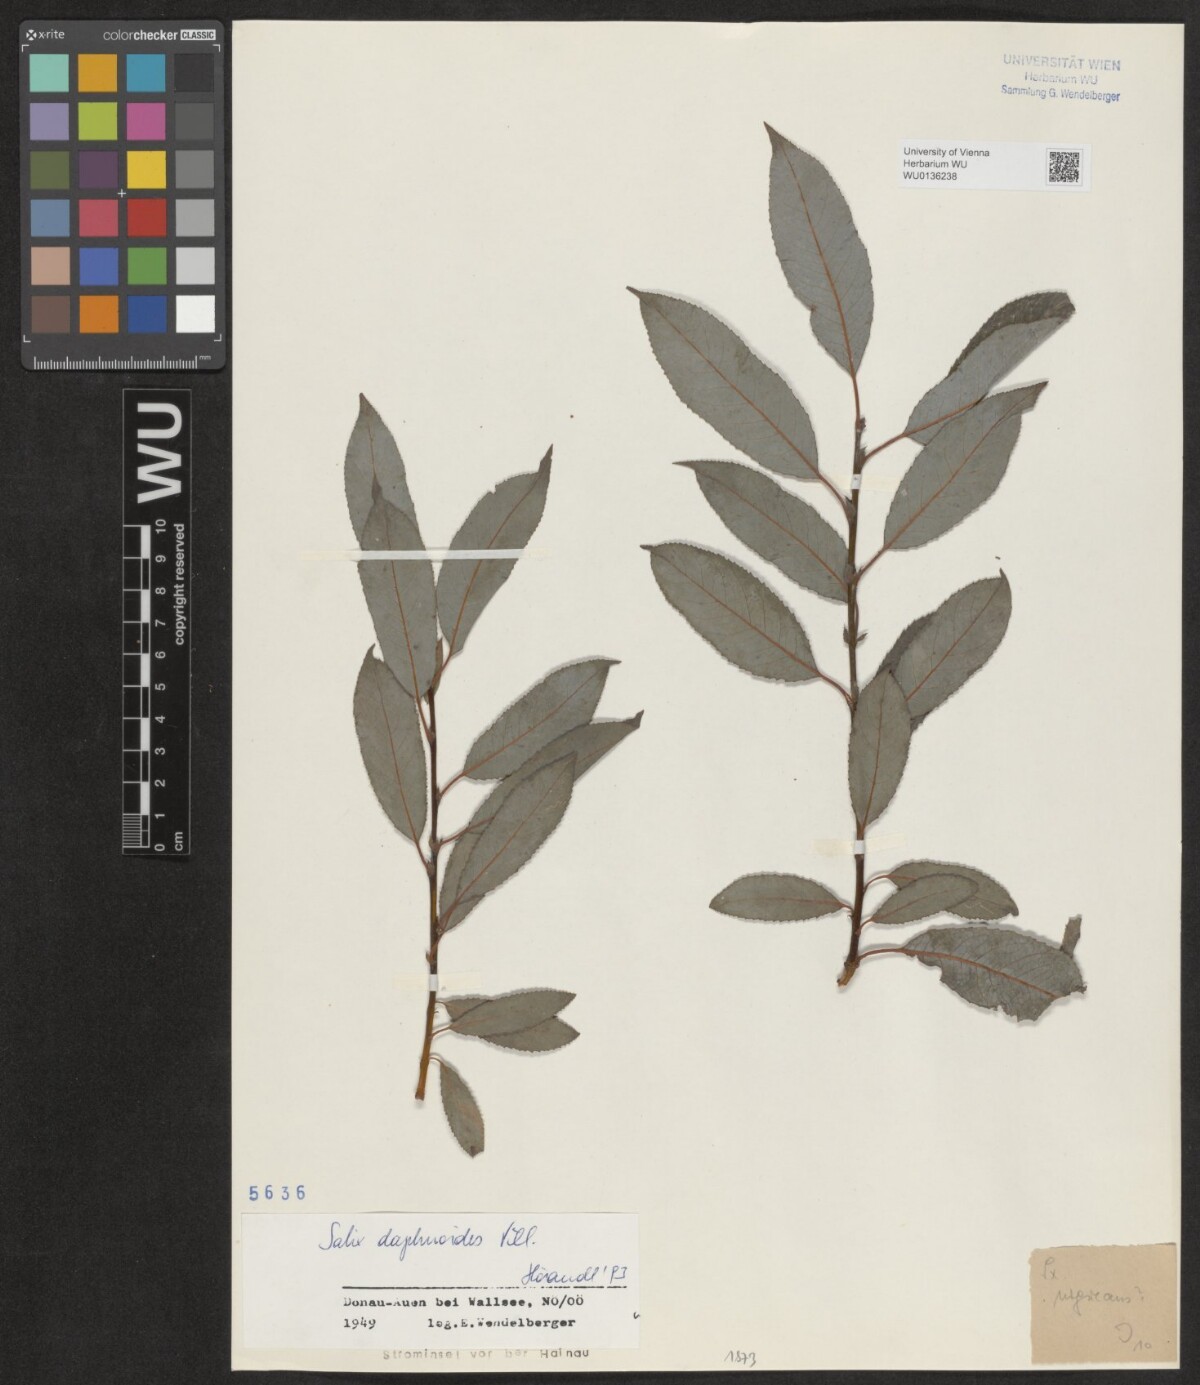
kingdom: Plantae
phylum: Tracheophyta
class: Magnoliopsida
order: Malpighiales
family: Salicaceae
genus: Salix
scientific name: Salix daphnoides
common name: European violet-willow
